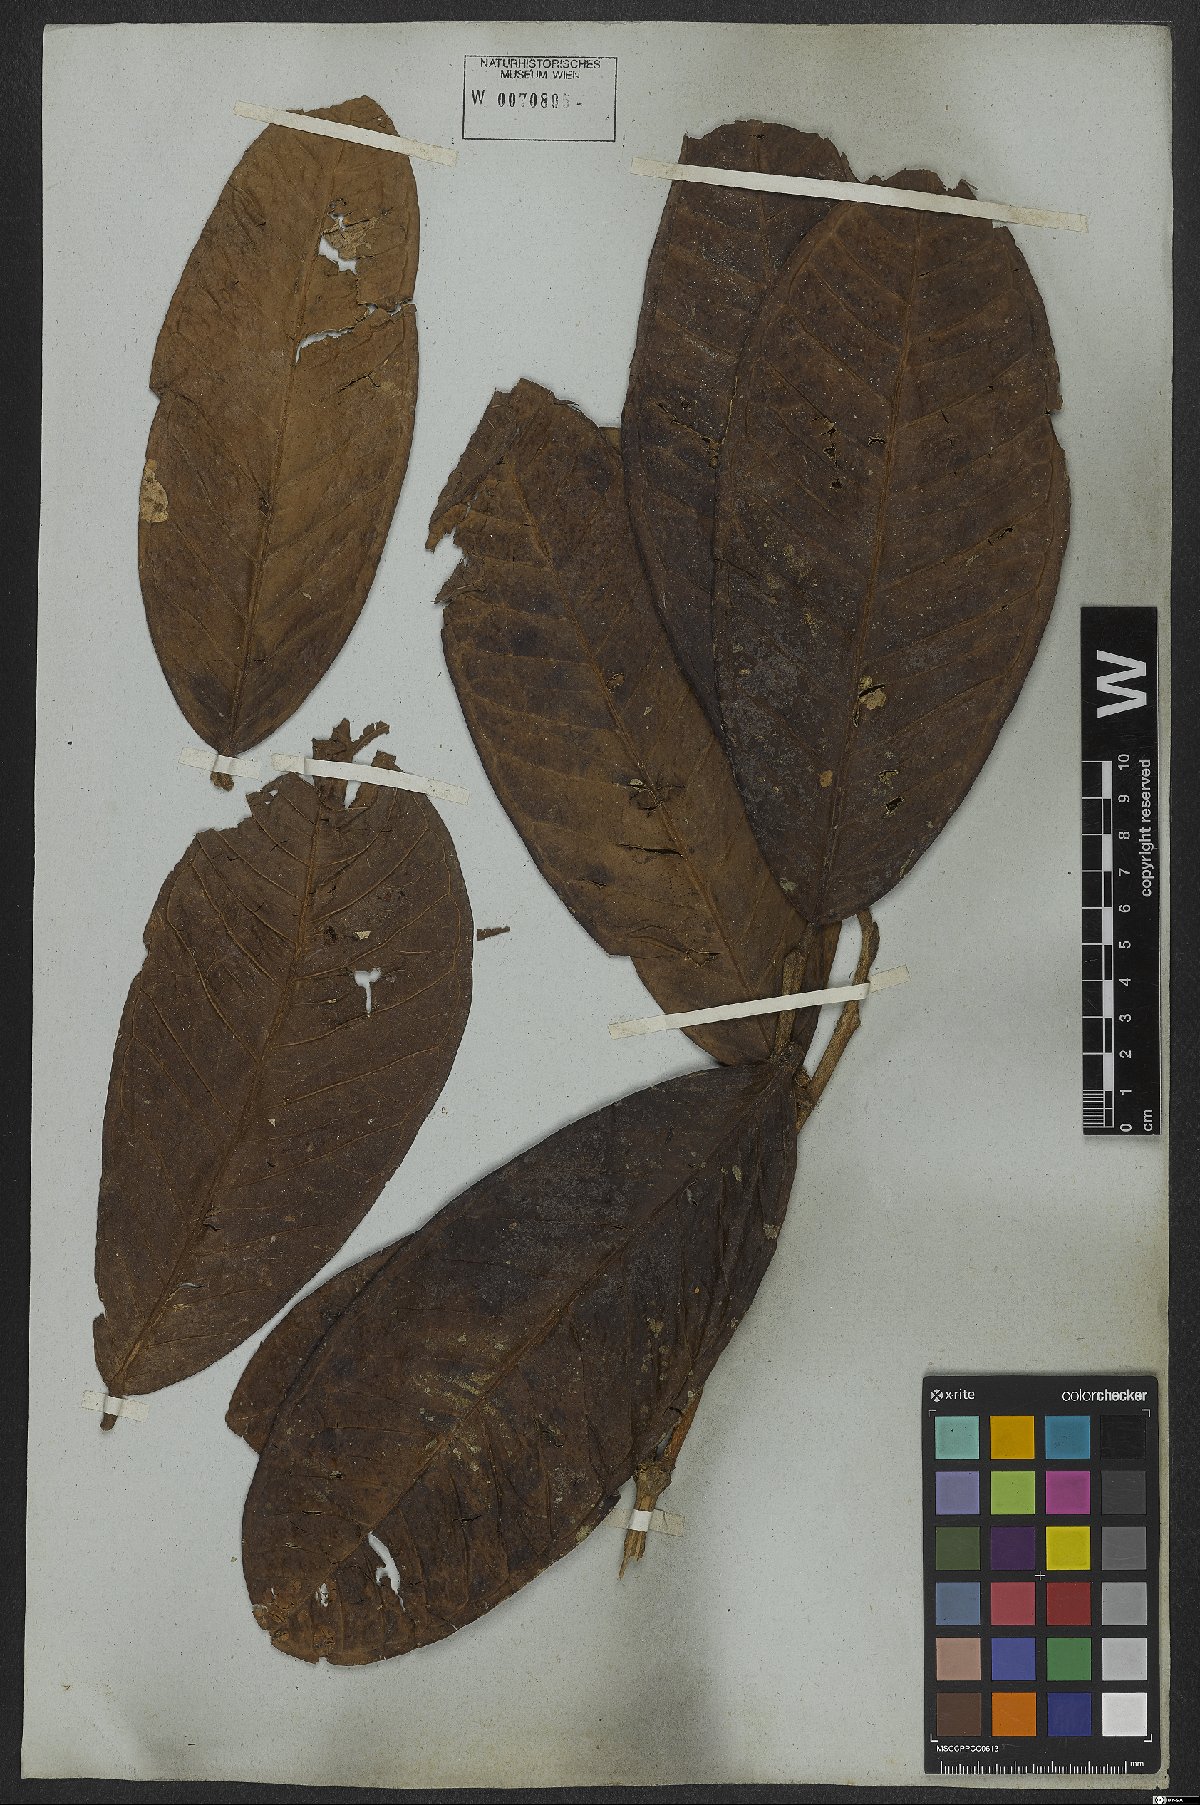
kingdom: Plantae
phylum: Tracheophyta
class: Magnoliopsida
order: Myrtales
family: Myrtaceae
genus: Eugenia
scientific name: Eugenia umbrosa
